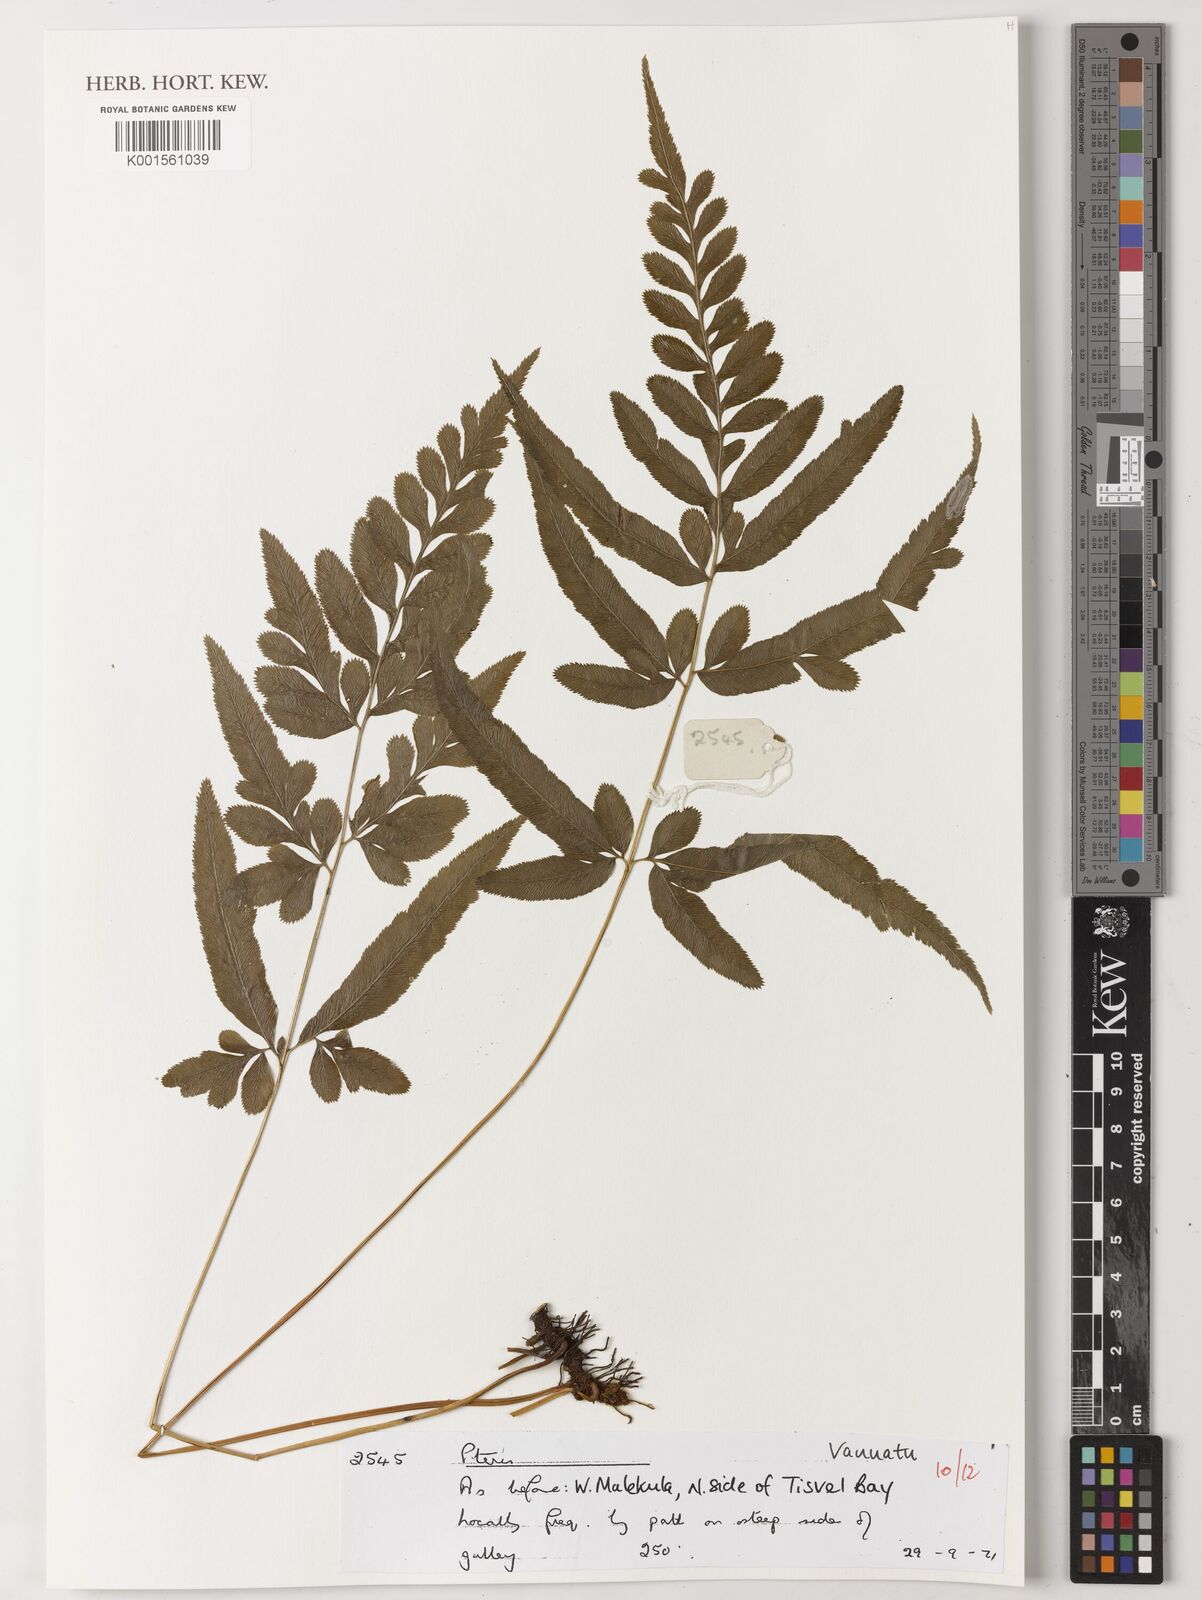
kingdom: Plantae
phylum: Tracheophyta
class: Polypodiopsida
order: Polypodiales
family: Pteridaceae
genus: Pteris
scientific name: Pteris
